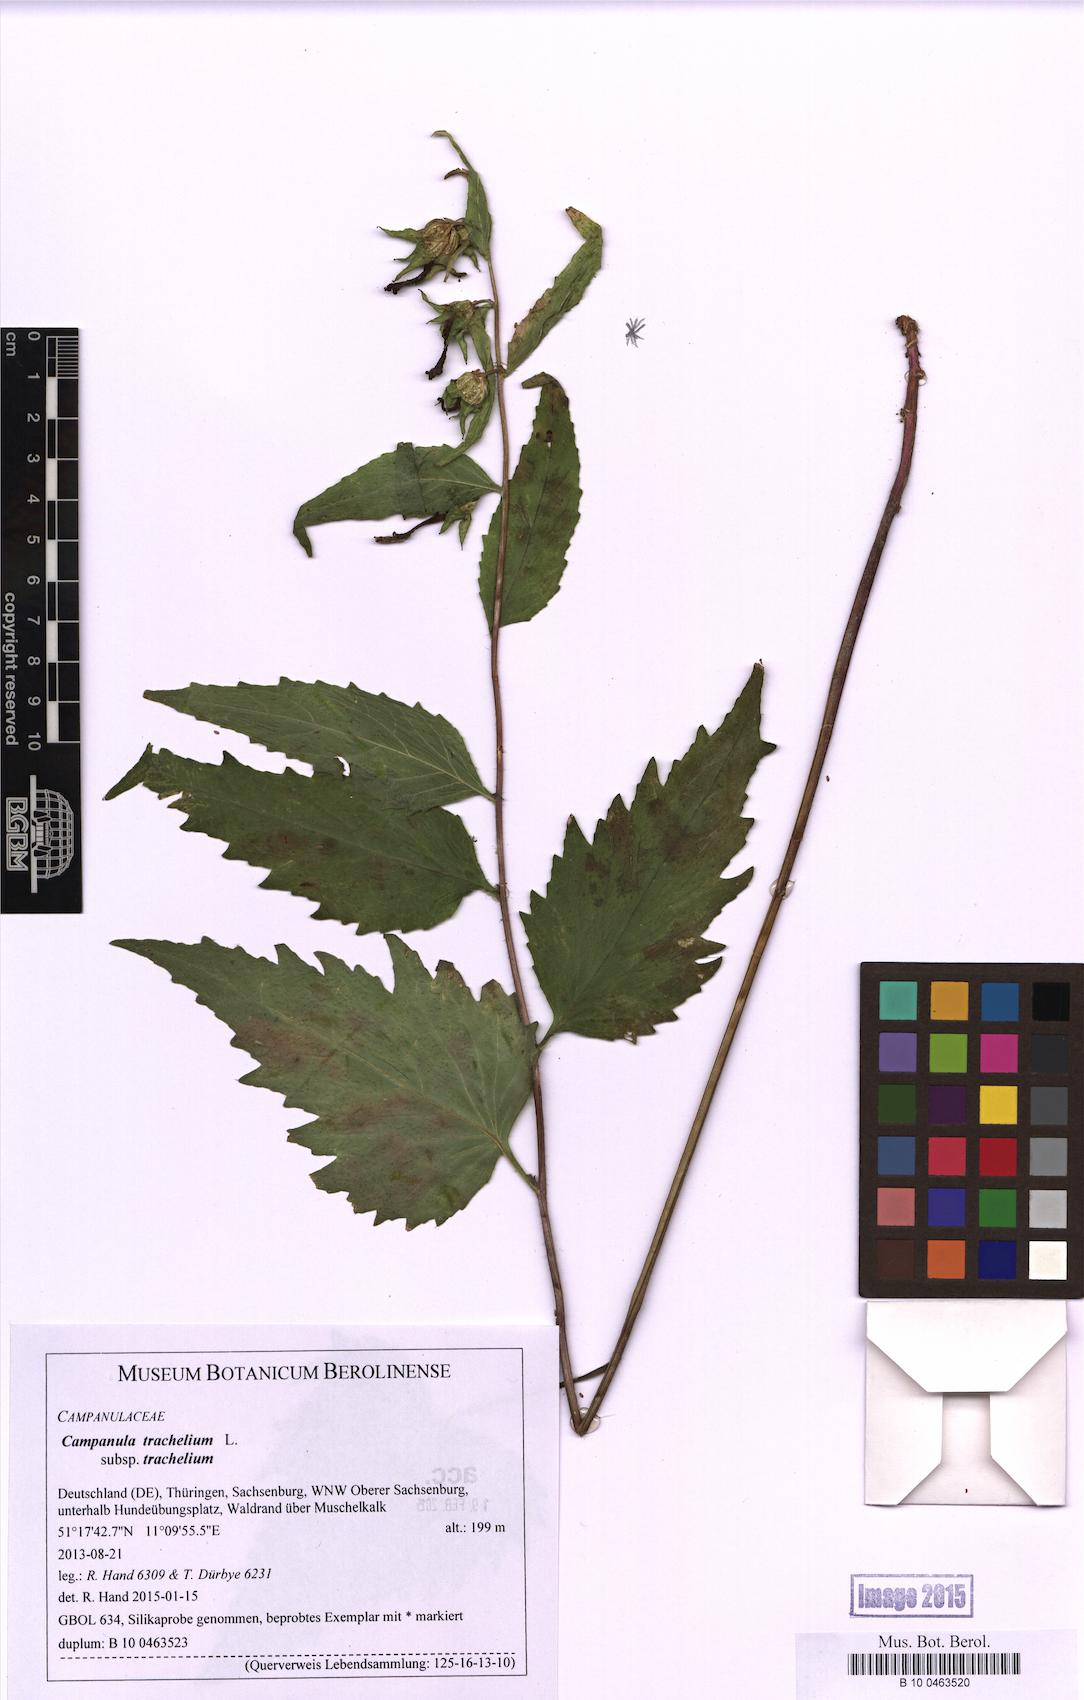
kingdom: Plantae
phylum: Tracheophyta
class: Magnoliopsida
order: Asterales
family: Campanulaceae
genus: Campanula
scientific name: Campanula trachelium
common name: Nettle-leaved bellflower
